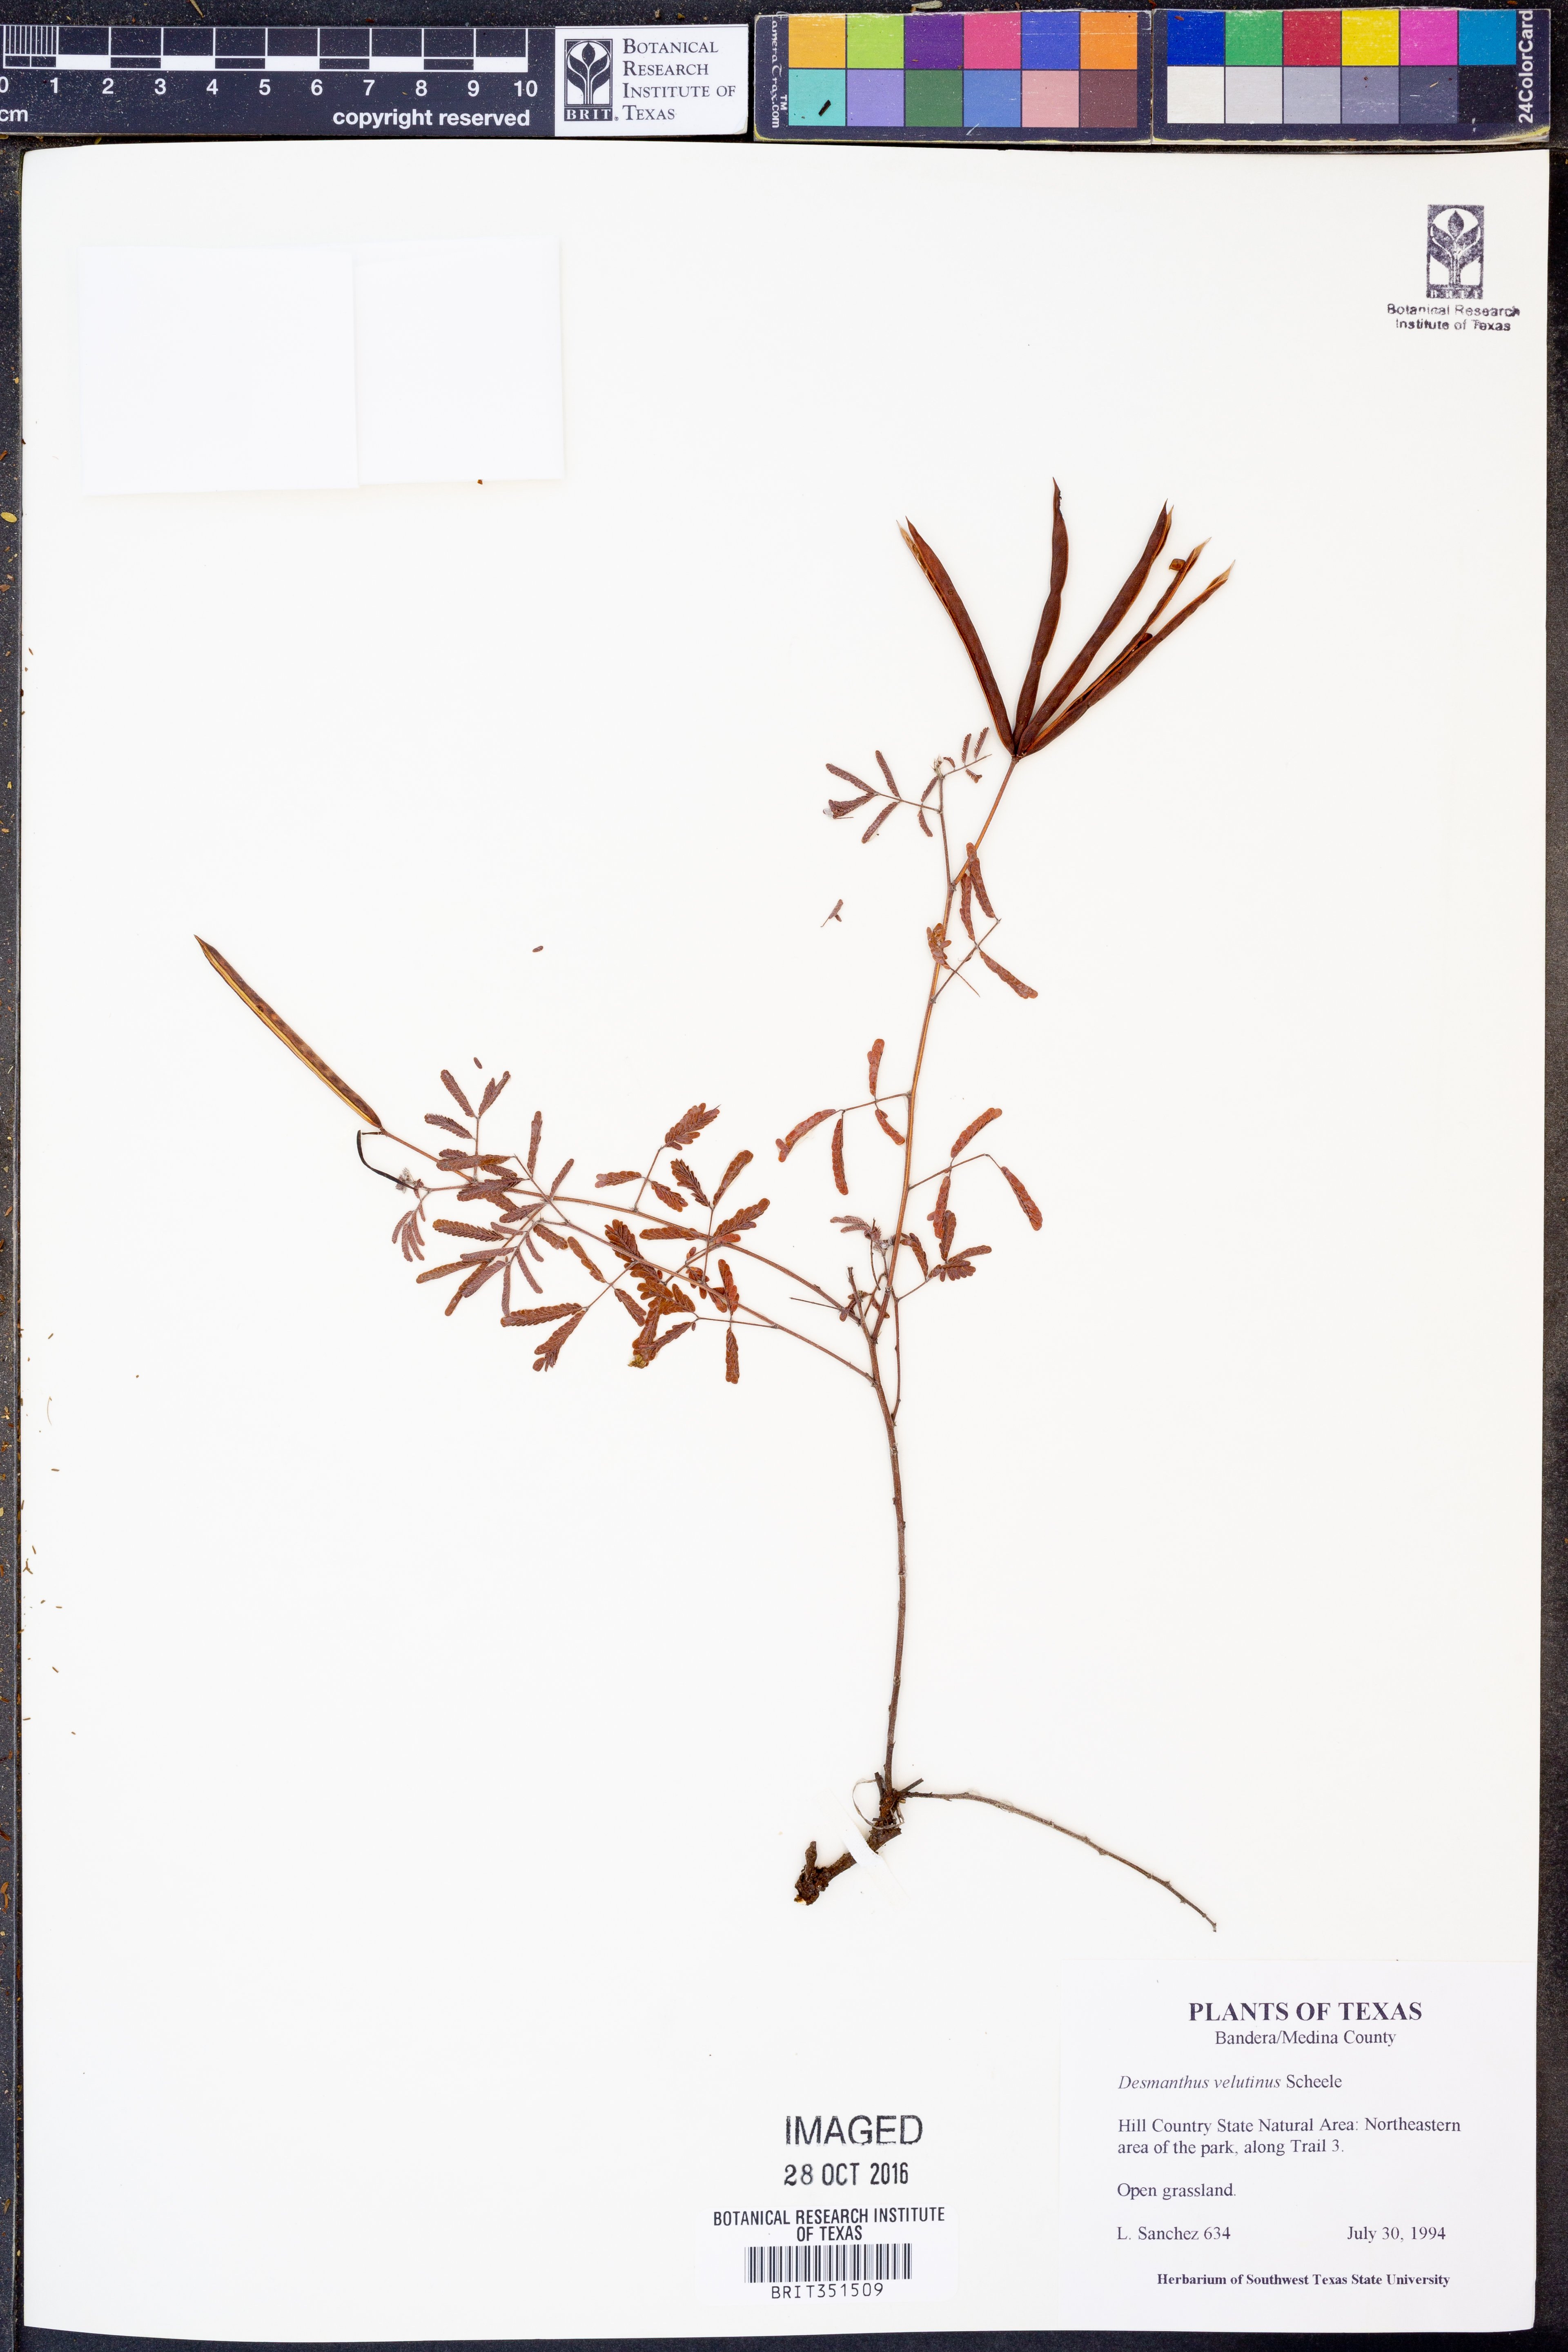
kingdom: Plantae
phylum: Tracheophyta
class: Magnoliopsida
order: Fabales
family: Fabaceae
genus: Desmanthus
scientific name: Desmanthus velutinus
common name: Velvet bundle-flower
